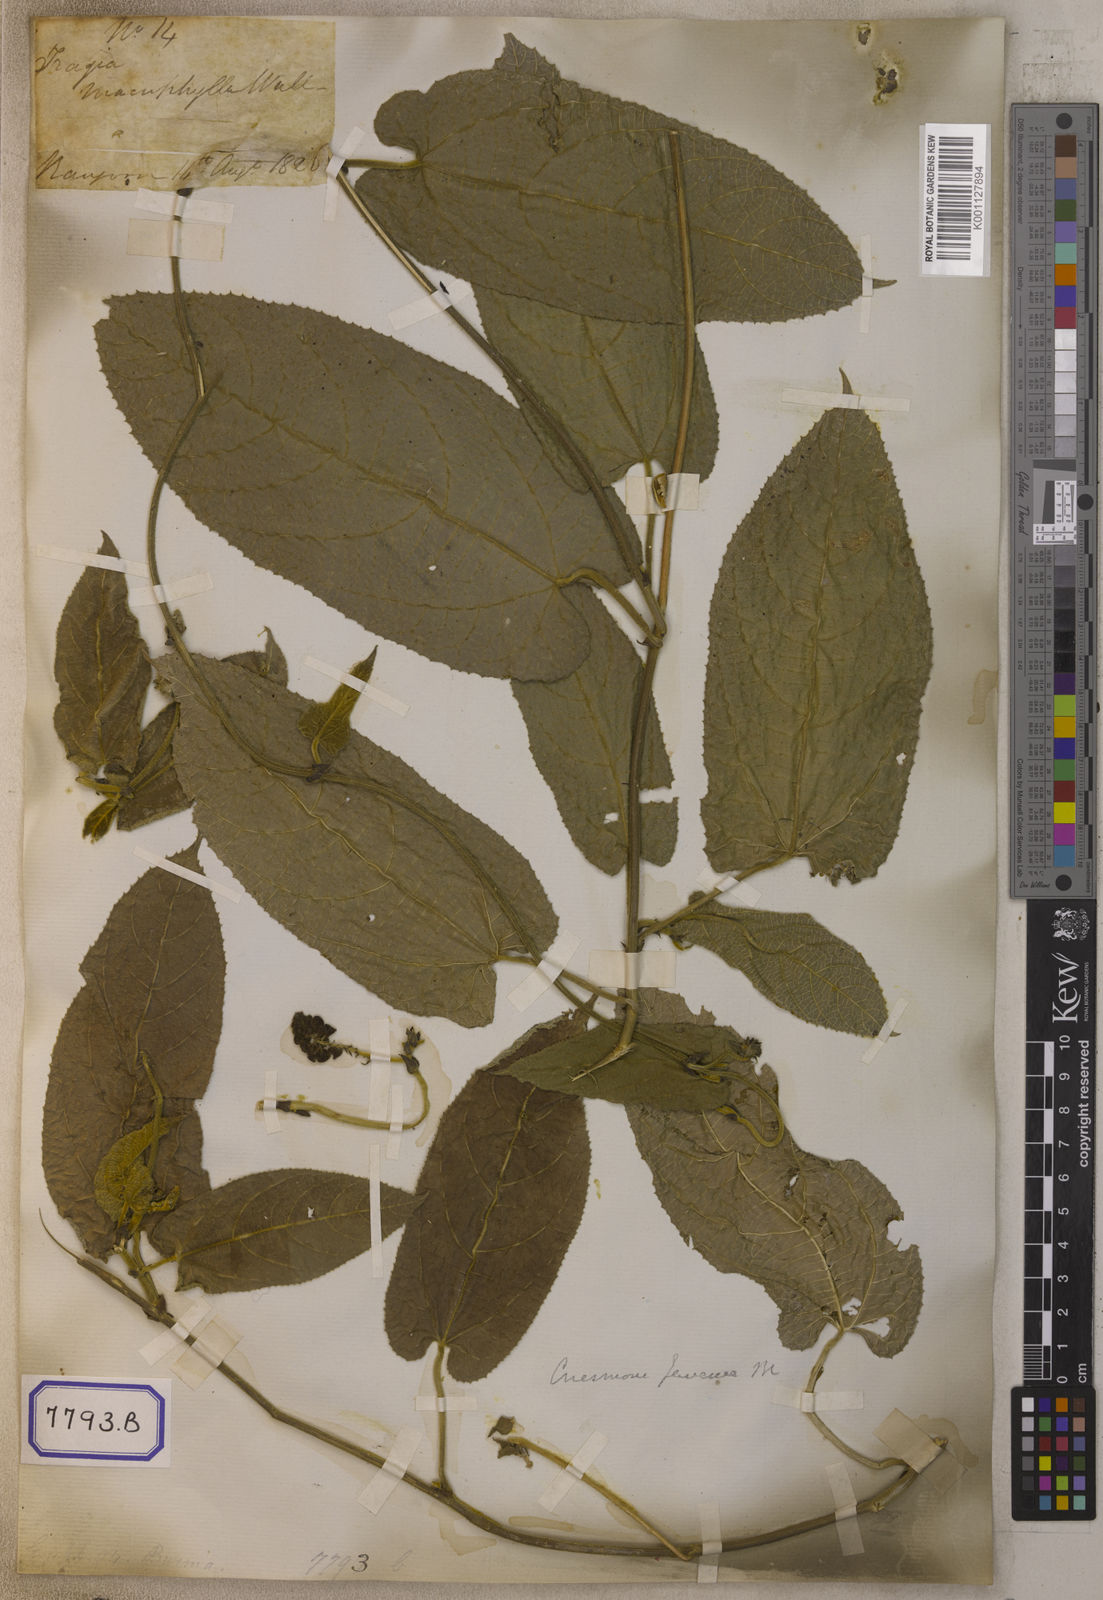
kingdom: Plantae
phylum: Tracheophyta
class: Magnoliopsida
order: Malpighiales
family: Euphorbiaceae
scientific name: Euphorbiaceae
